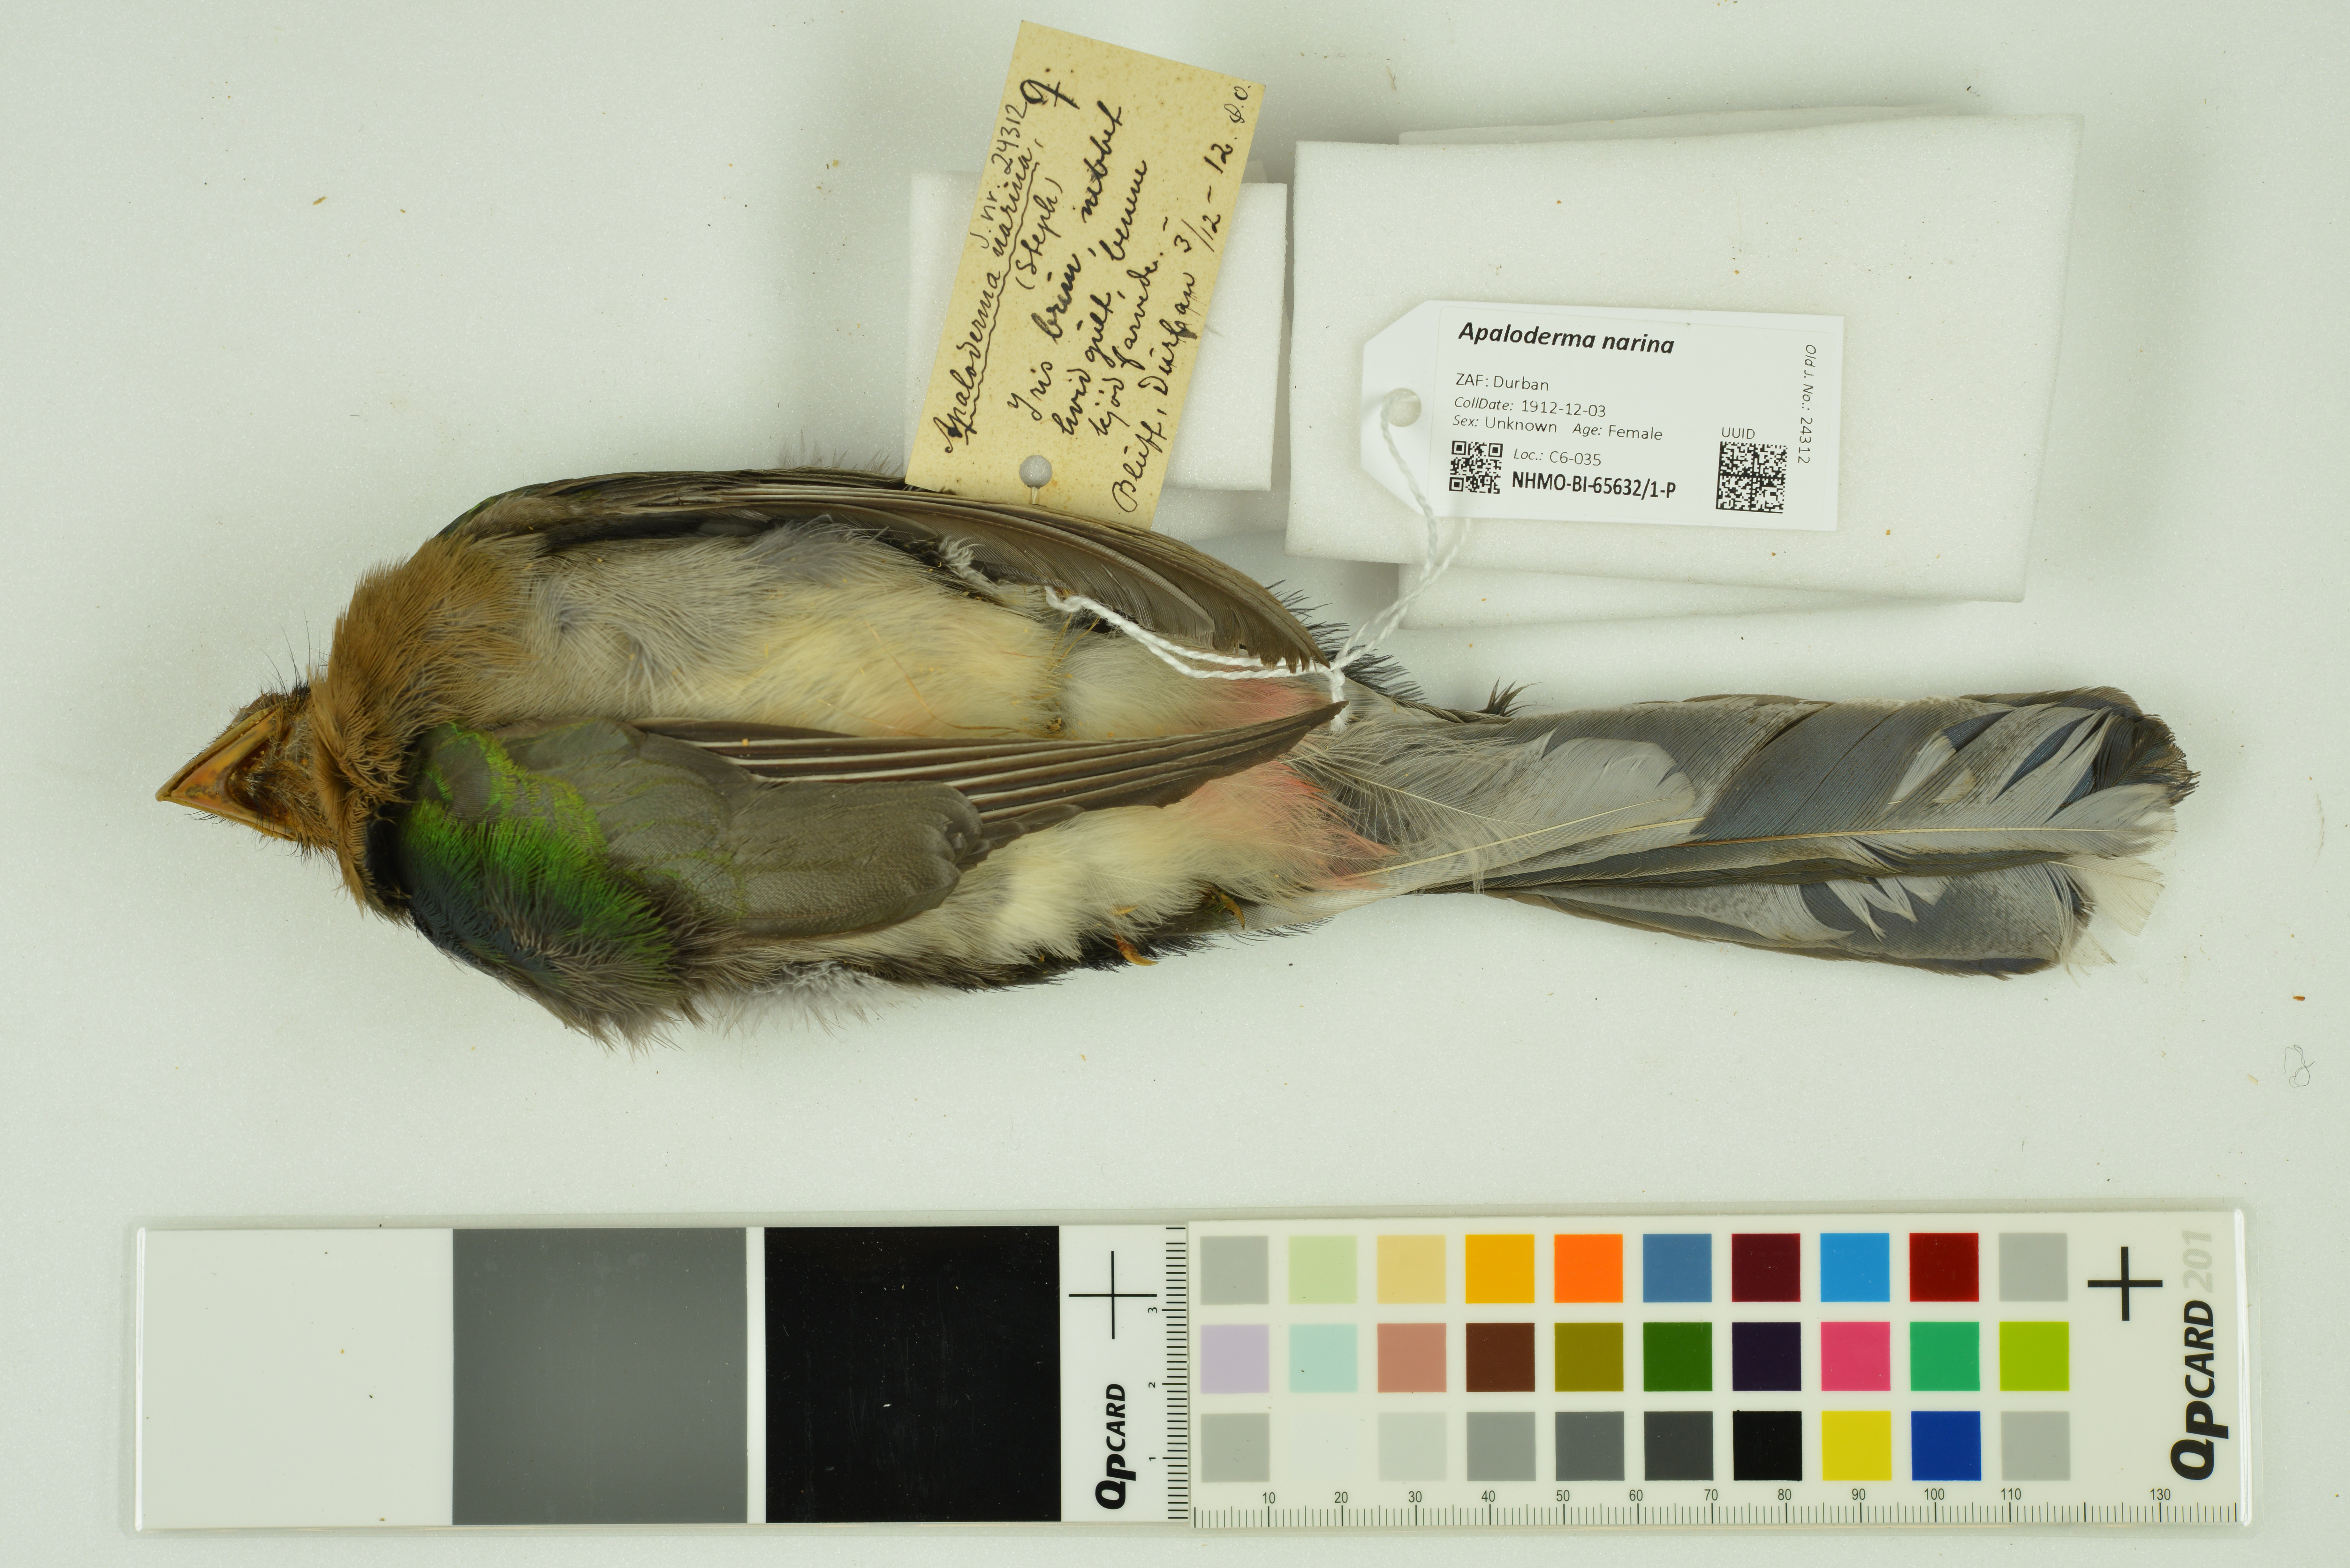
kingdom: Animalia
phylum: Chordata
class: Aves
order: Trogoniformes
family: Trogonidae
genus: Apaloderma
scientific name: Apaloderma narina
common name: Narina trogon
